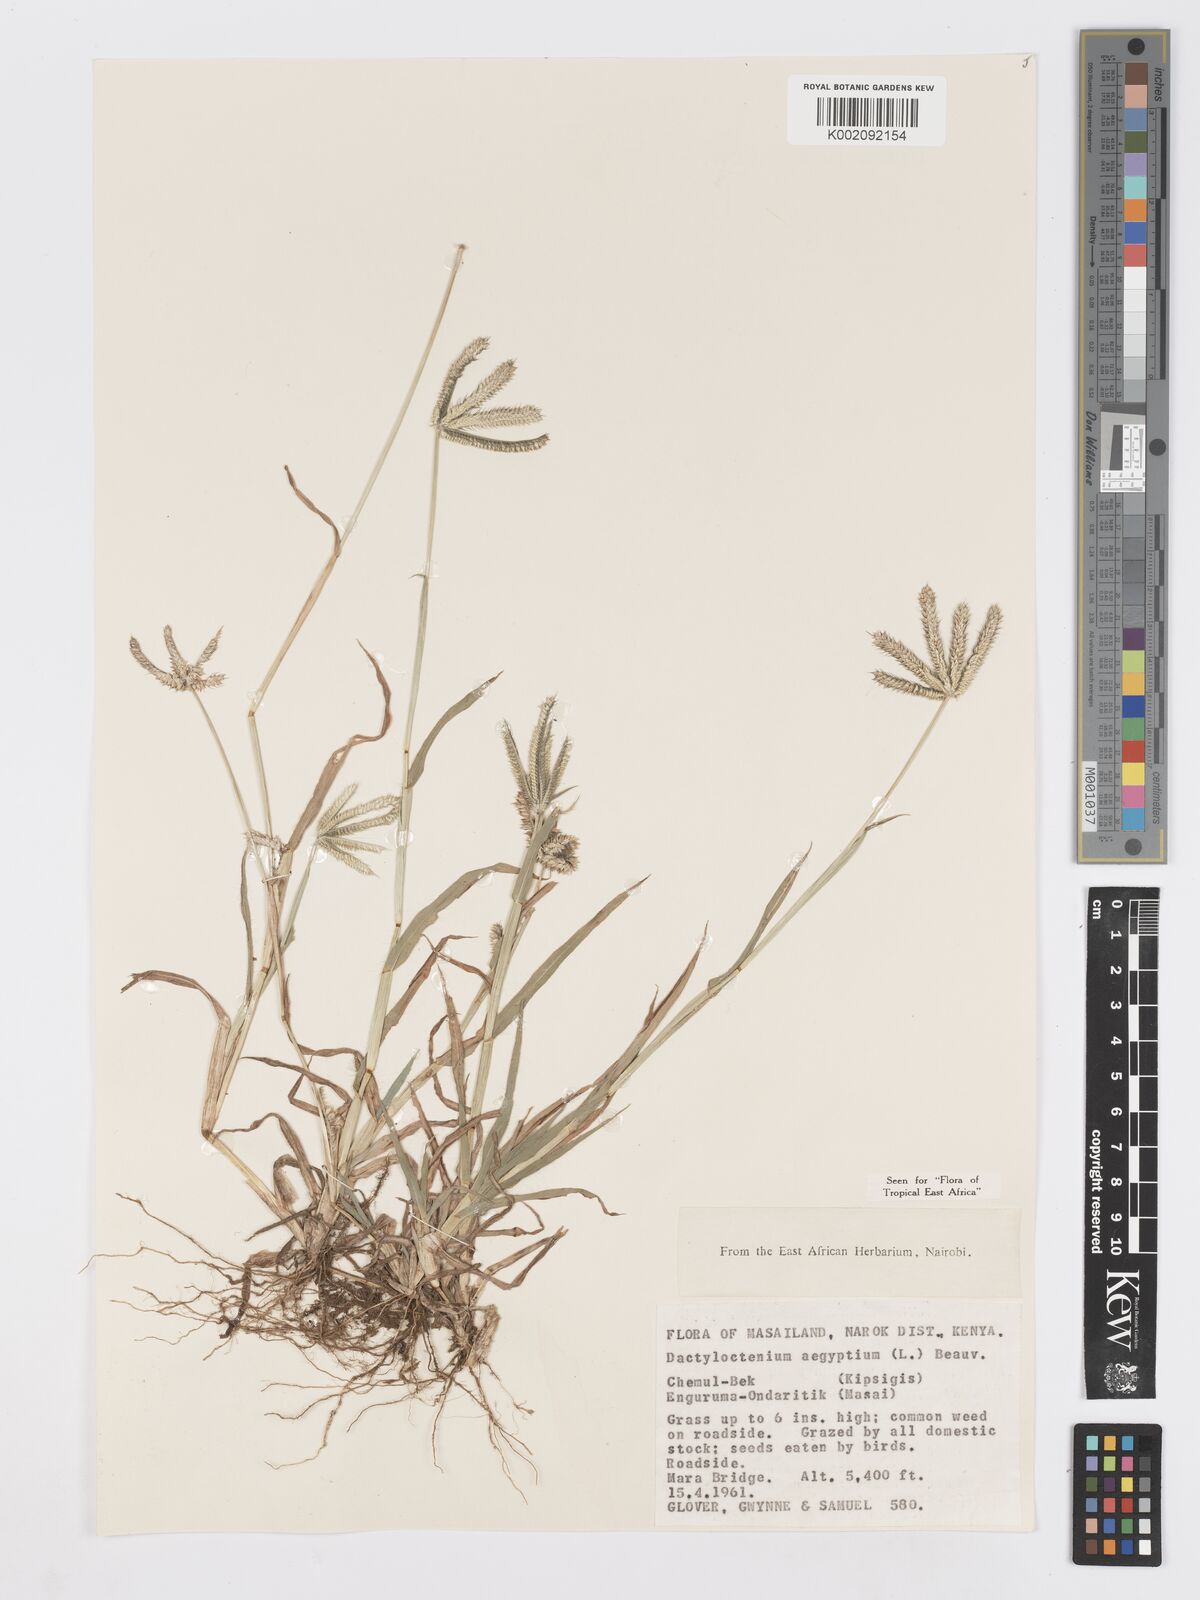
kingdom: Plantae
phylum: Tracheophyta
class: Liliopsida
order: Poales
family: Poaceae
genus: Dactyloctenium
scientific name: Dactyloctenium aegyptium
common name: Egyptian grass
